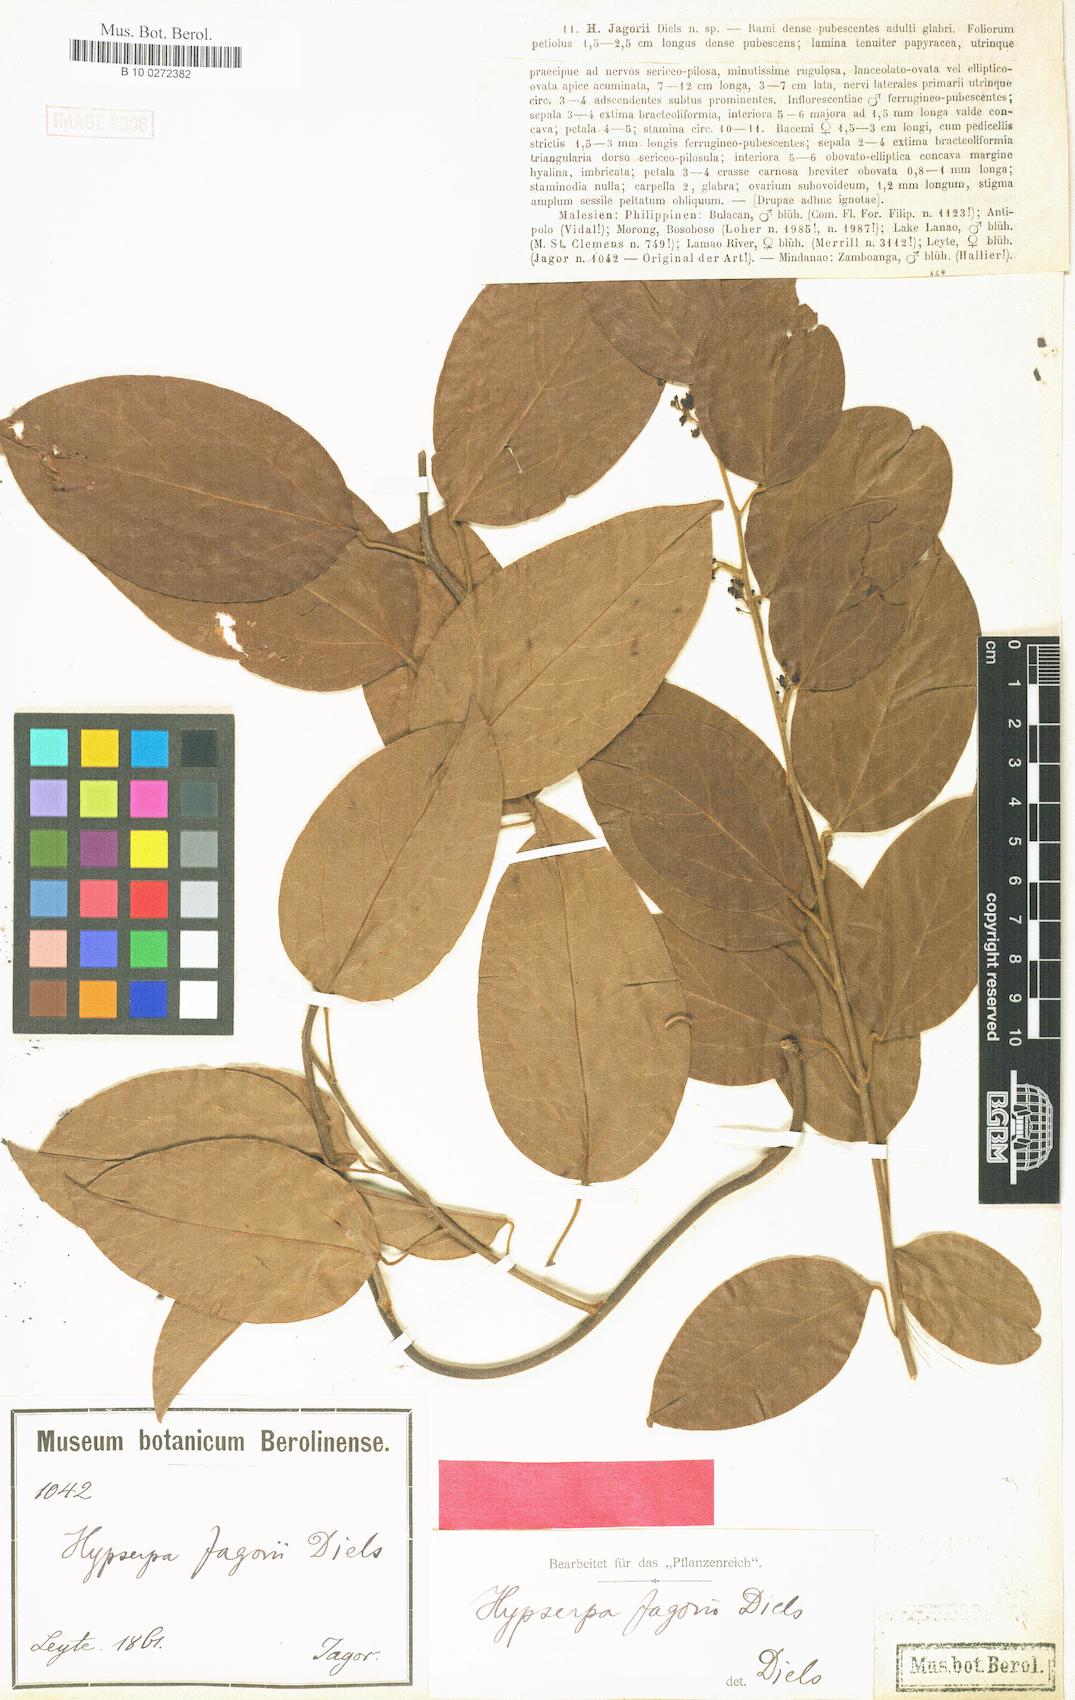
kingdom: Plantae
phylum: Tracheophyta
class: Magnoliopsida
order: Ranunculales
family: Menispermaceae
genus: Hypserpa
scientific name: Hypserpa nitida
